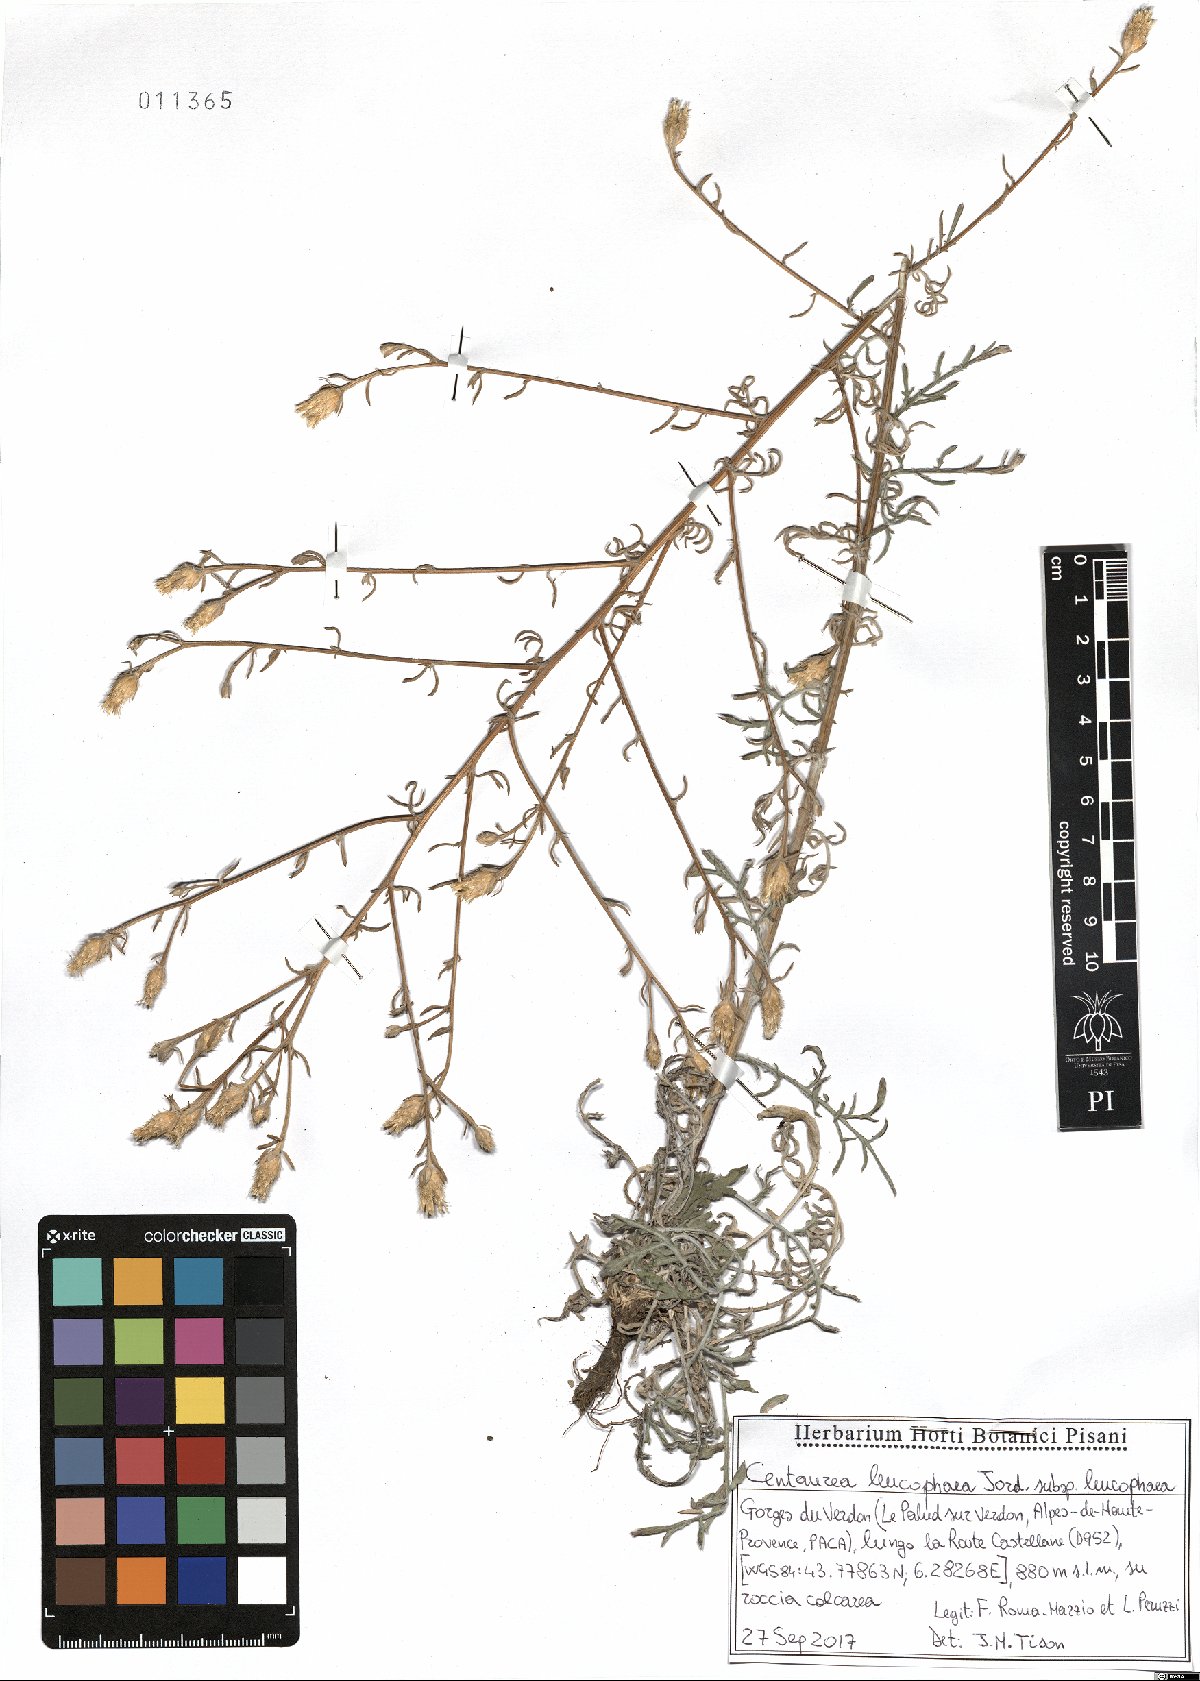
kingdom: Plantae
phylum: Tracheophyta
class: Magnoliopsida
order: Asterales
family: Asteraceae
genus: Centaurea
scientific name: Centaurea leucophaea
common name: Whitish-leaved knapweed
